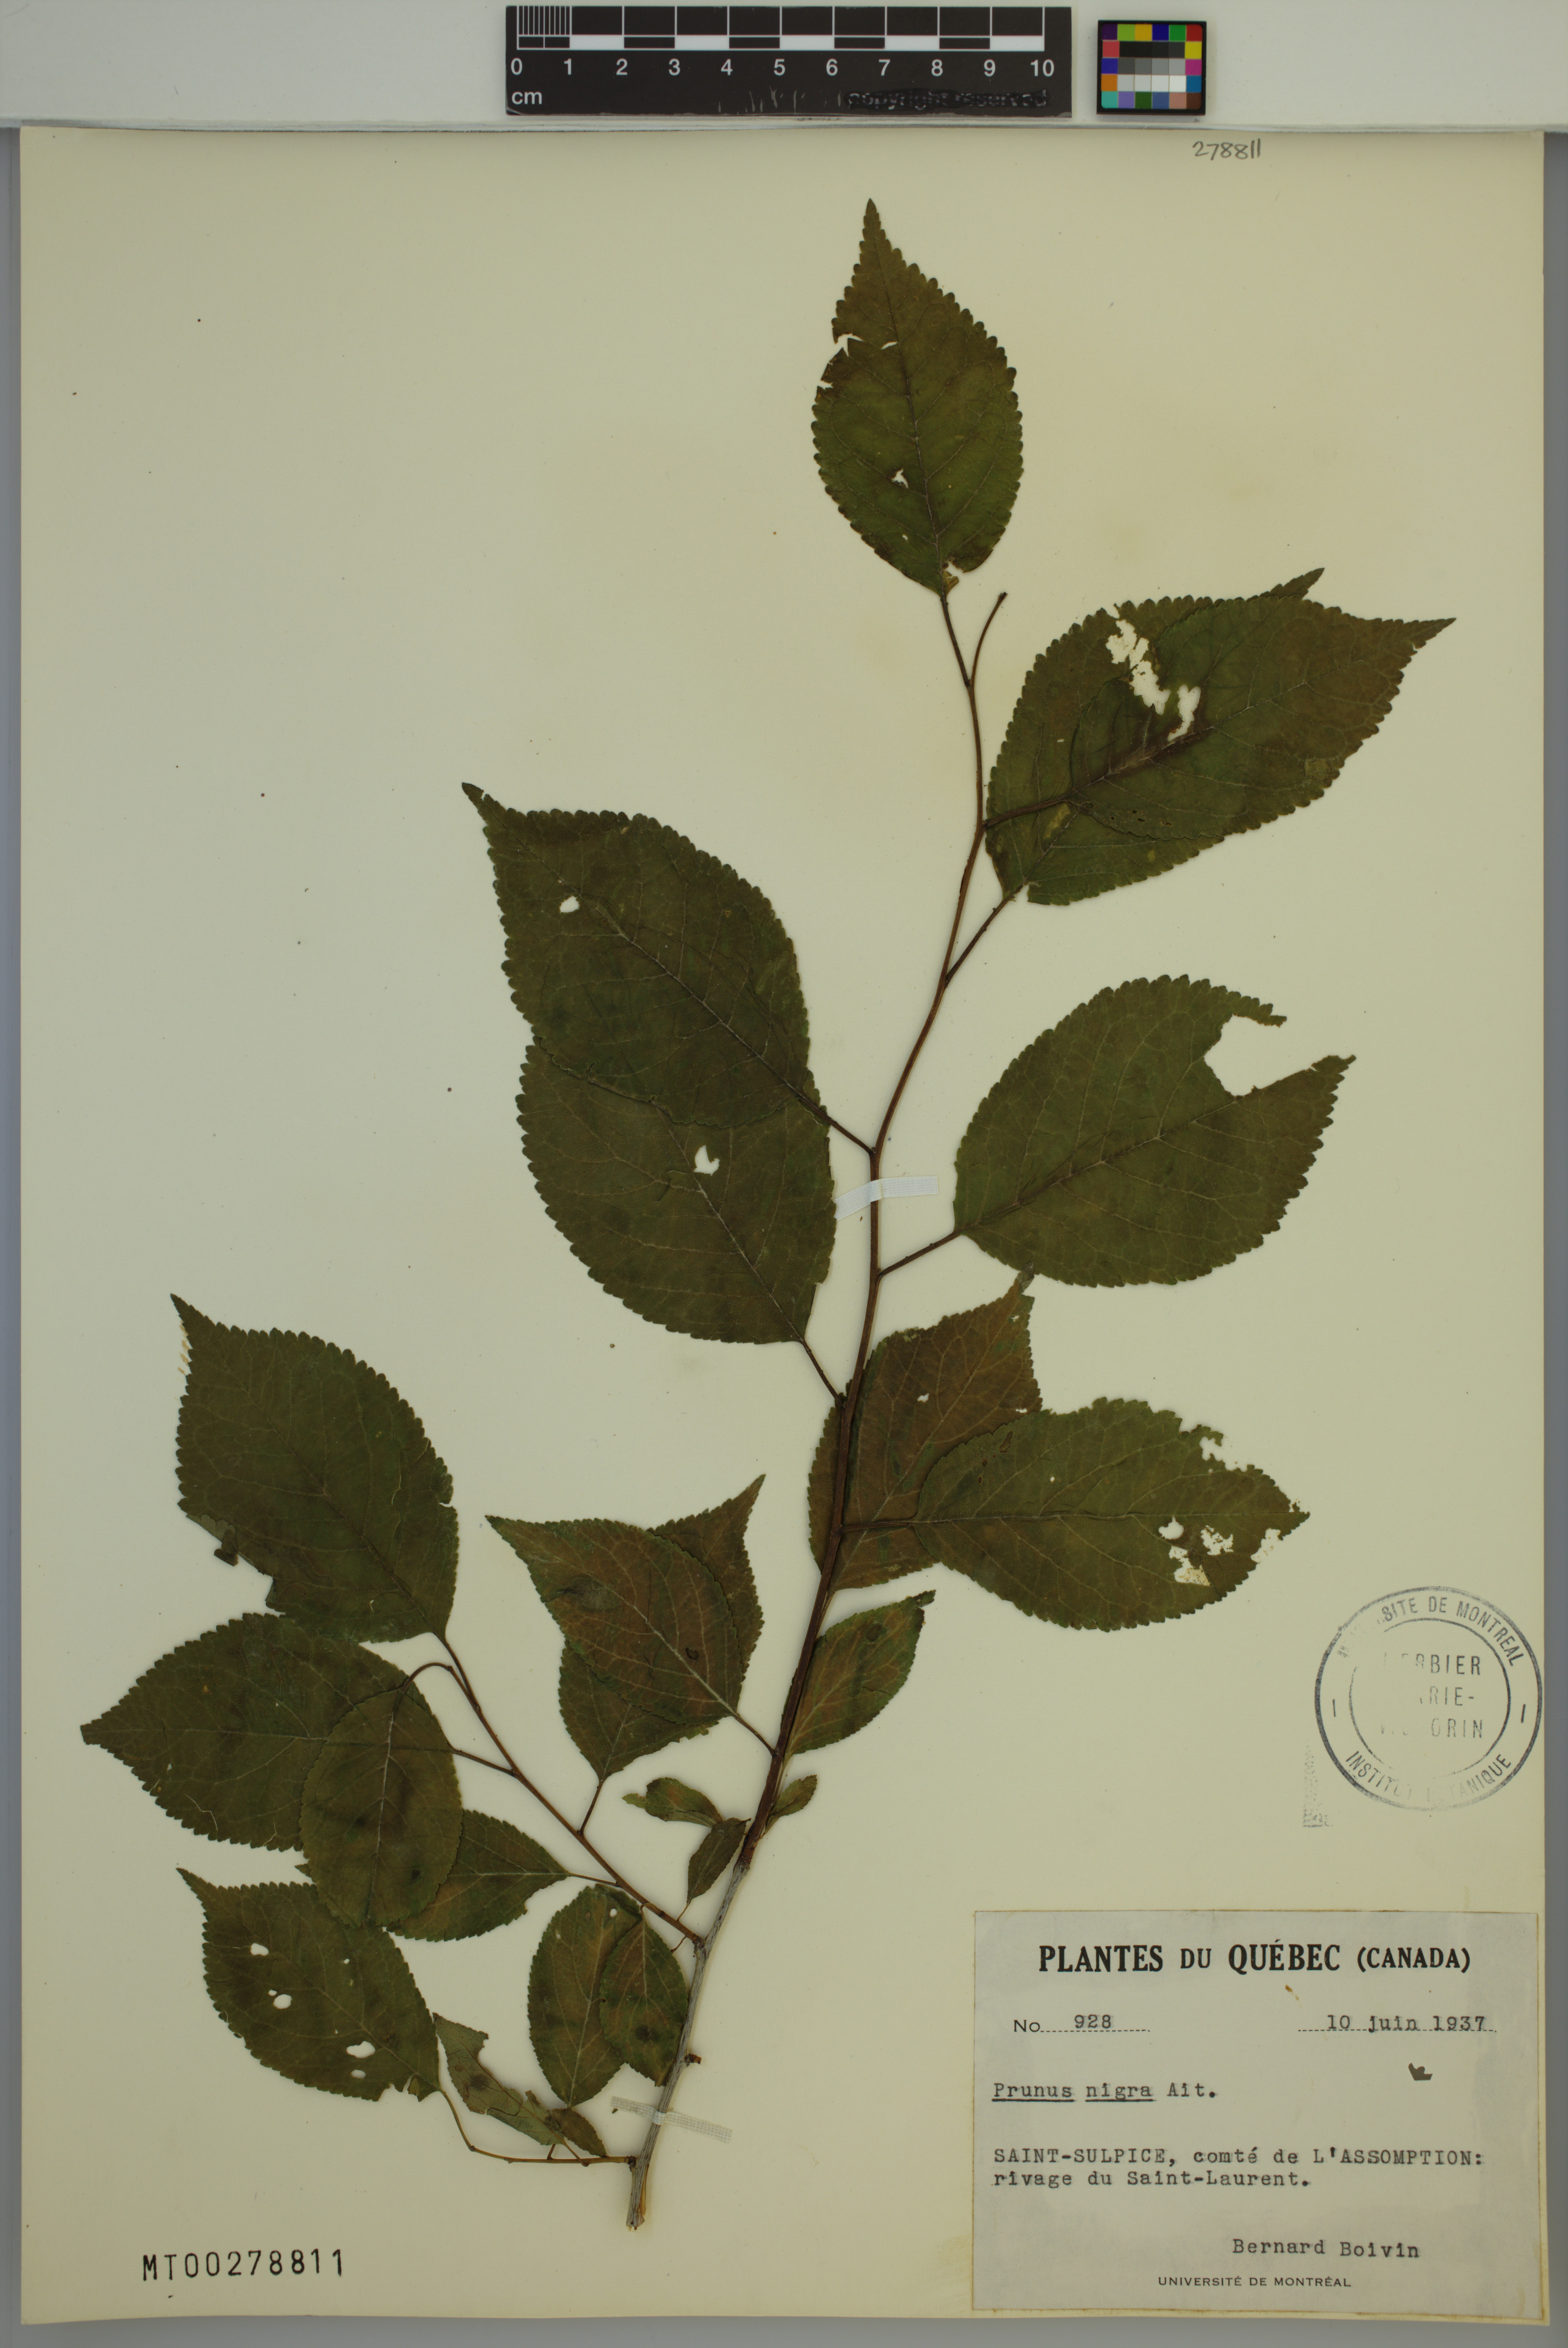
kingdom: Plantae
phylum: Tracheophyta
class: Magnoliopsida
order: Rosales
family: Rosaceae
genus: Prunus
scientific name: Prunus nigra
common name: Black plum
